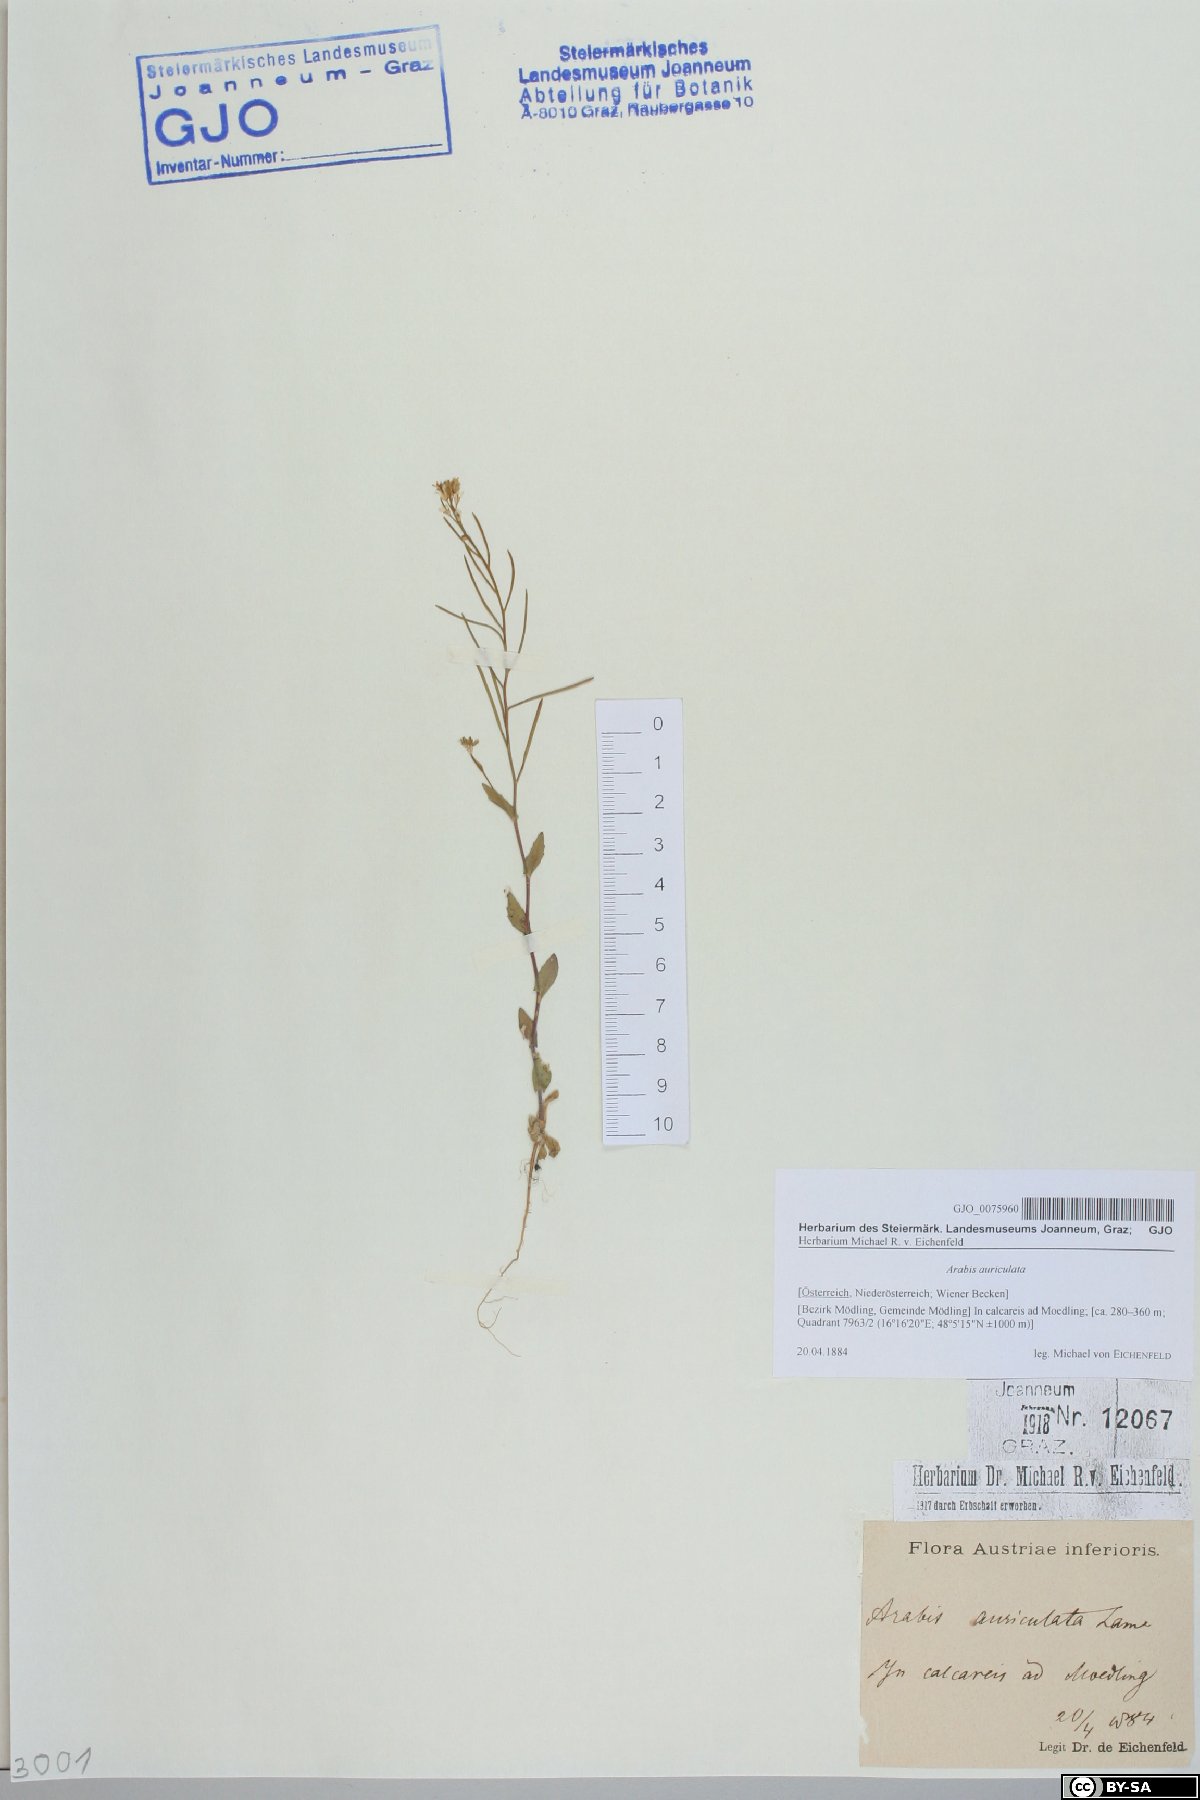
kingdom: Plantae
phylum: Tracheophyta
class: Magnoliopsida
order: Brassicales
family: Brassicaceae
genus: Arabis
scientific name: Arabis auriculata
